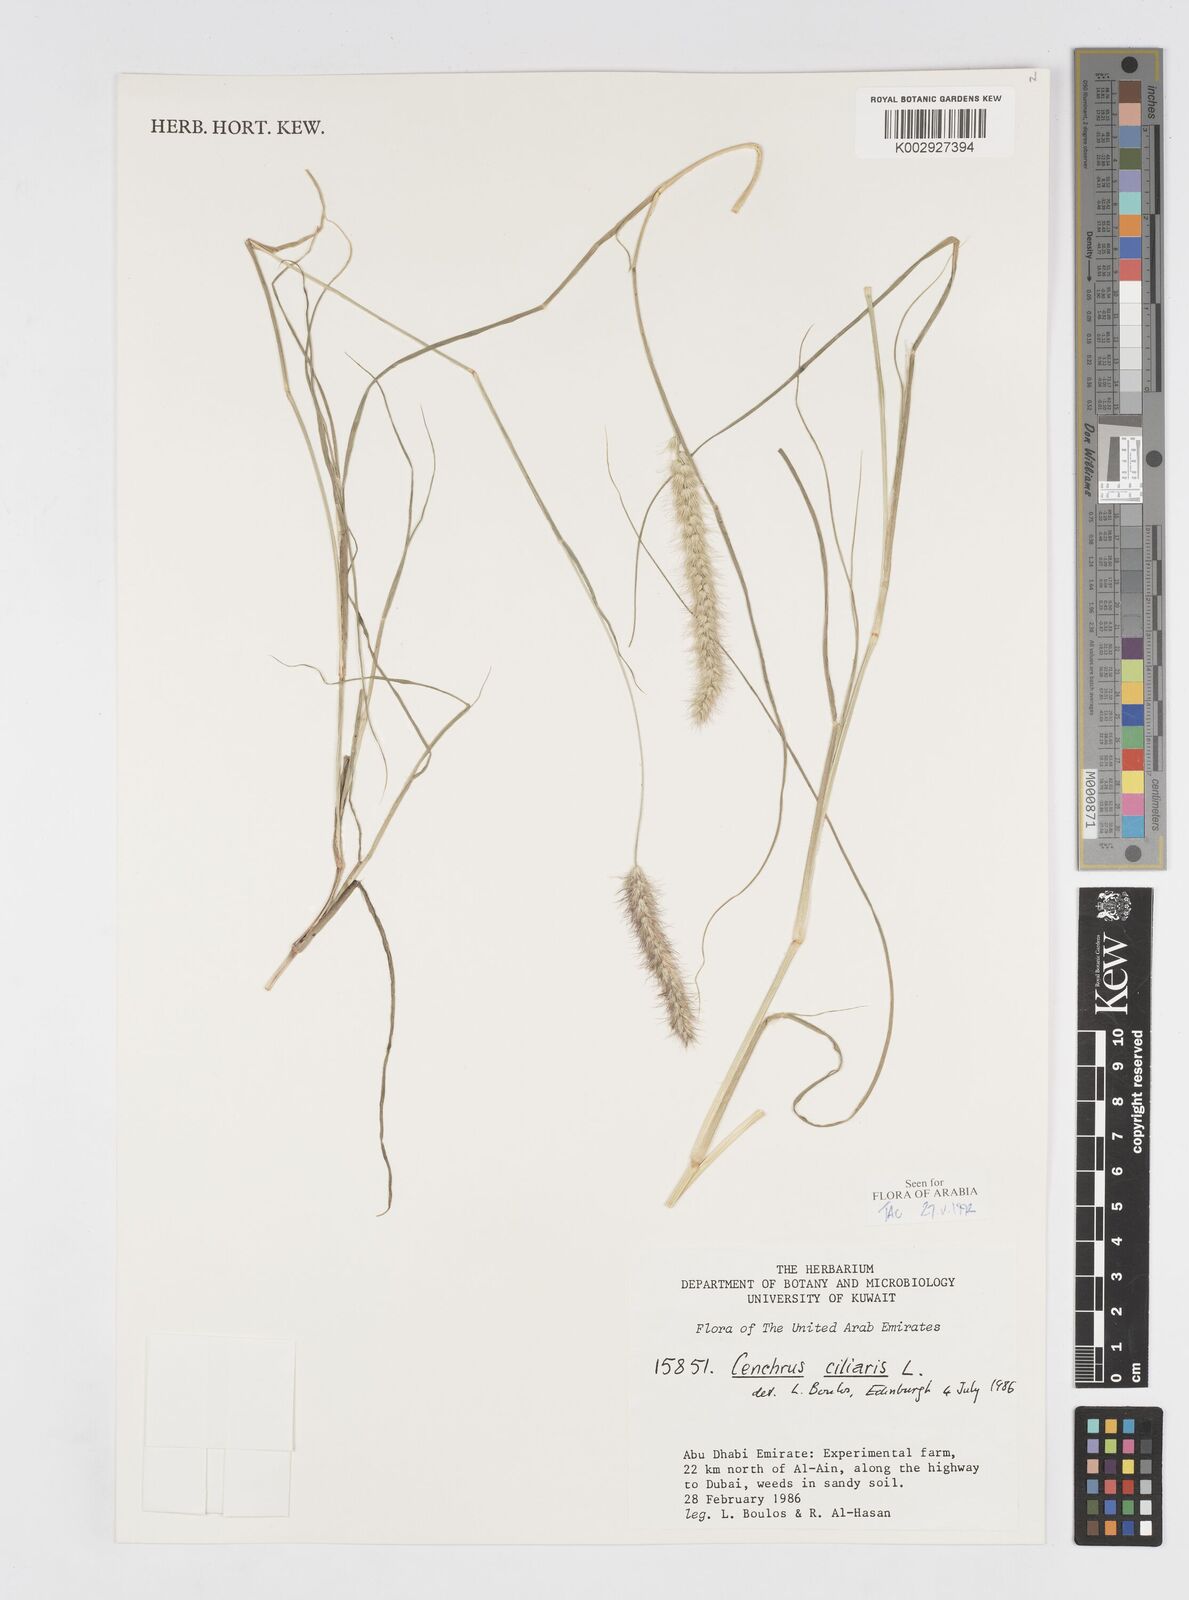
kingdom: Plantae
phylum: Tracheophyta
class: Liliopsida
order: Poales
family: Poaceae
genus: Cenchrus
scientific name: Cenchrus ciliaris
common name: Buffelgrass
